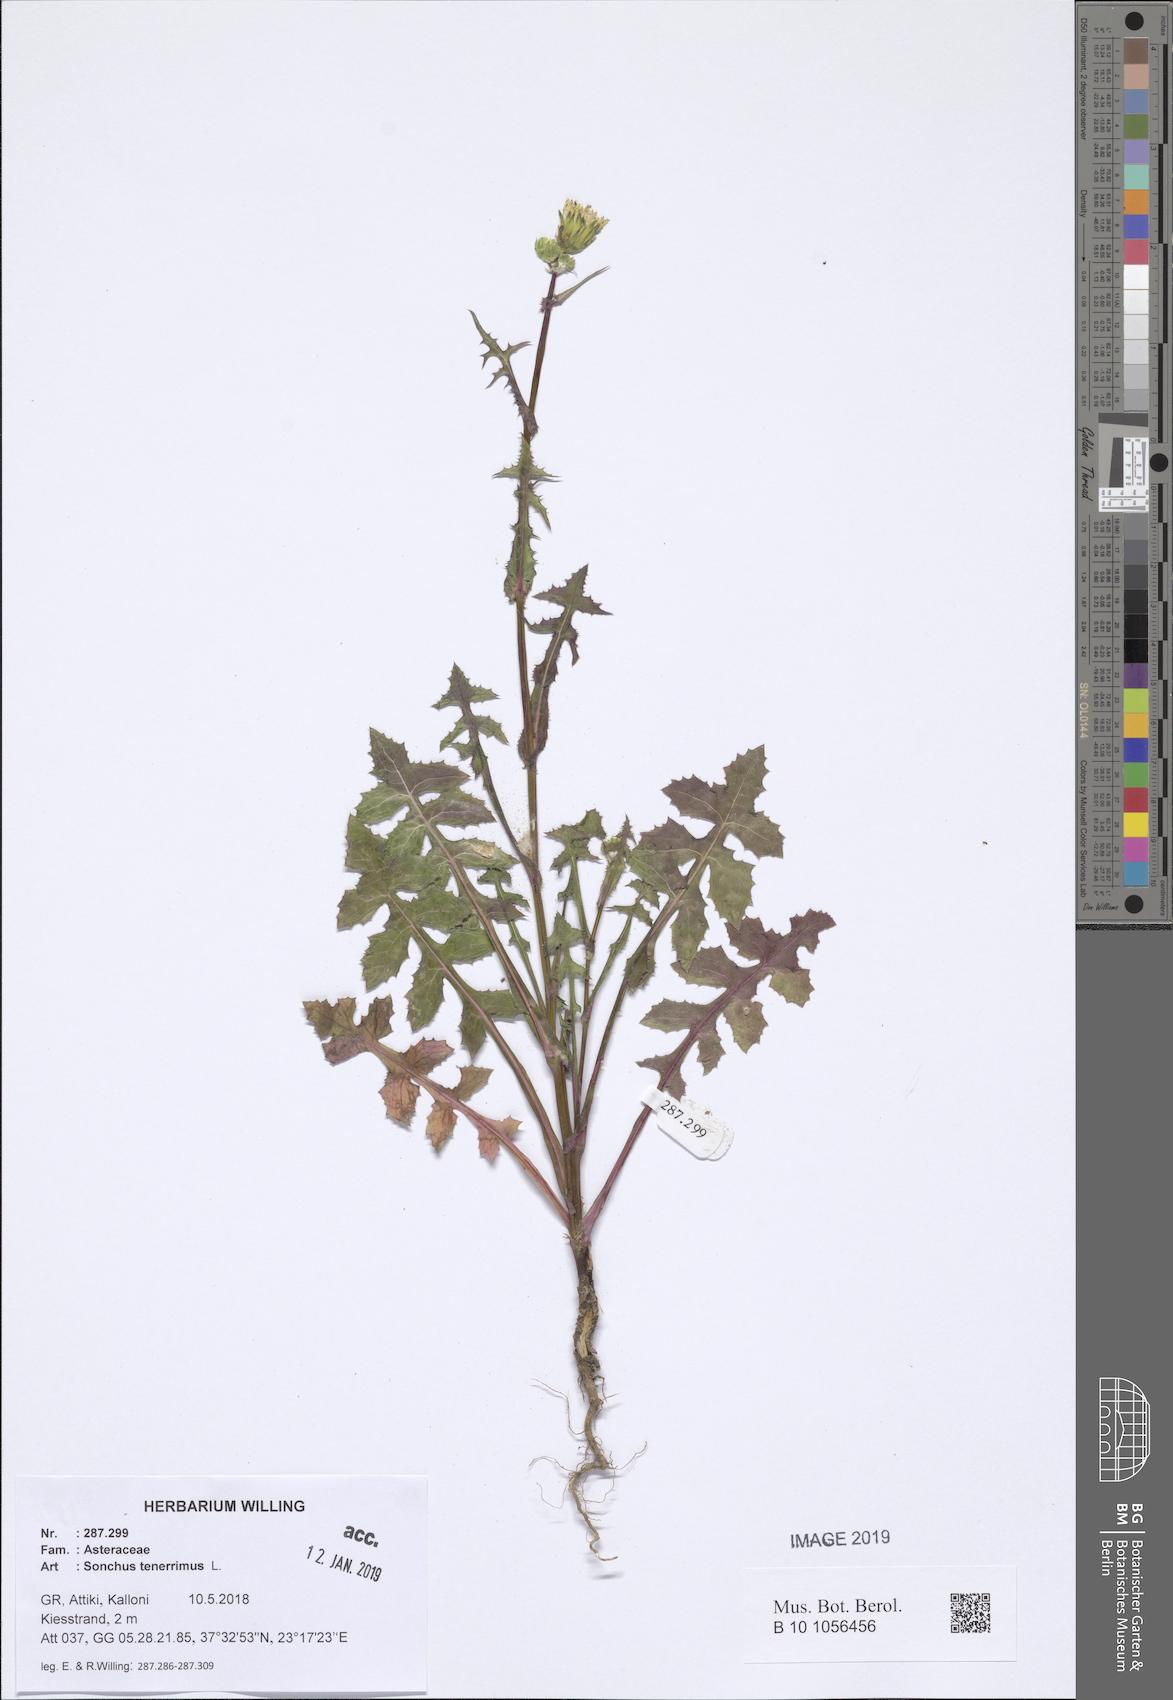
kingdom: Plantae
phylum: Tracheophyta
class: Magnoliopsida
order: Asterales
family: Asteraceae
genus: Sonchus
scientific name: Sonchus tenerrimus
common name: Clammy sowthistle
